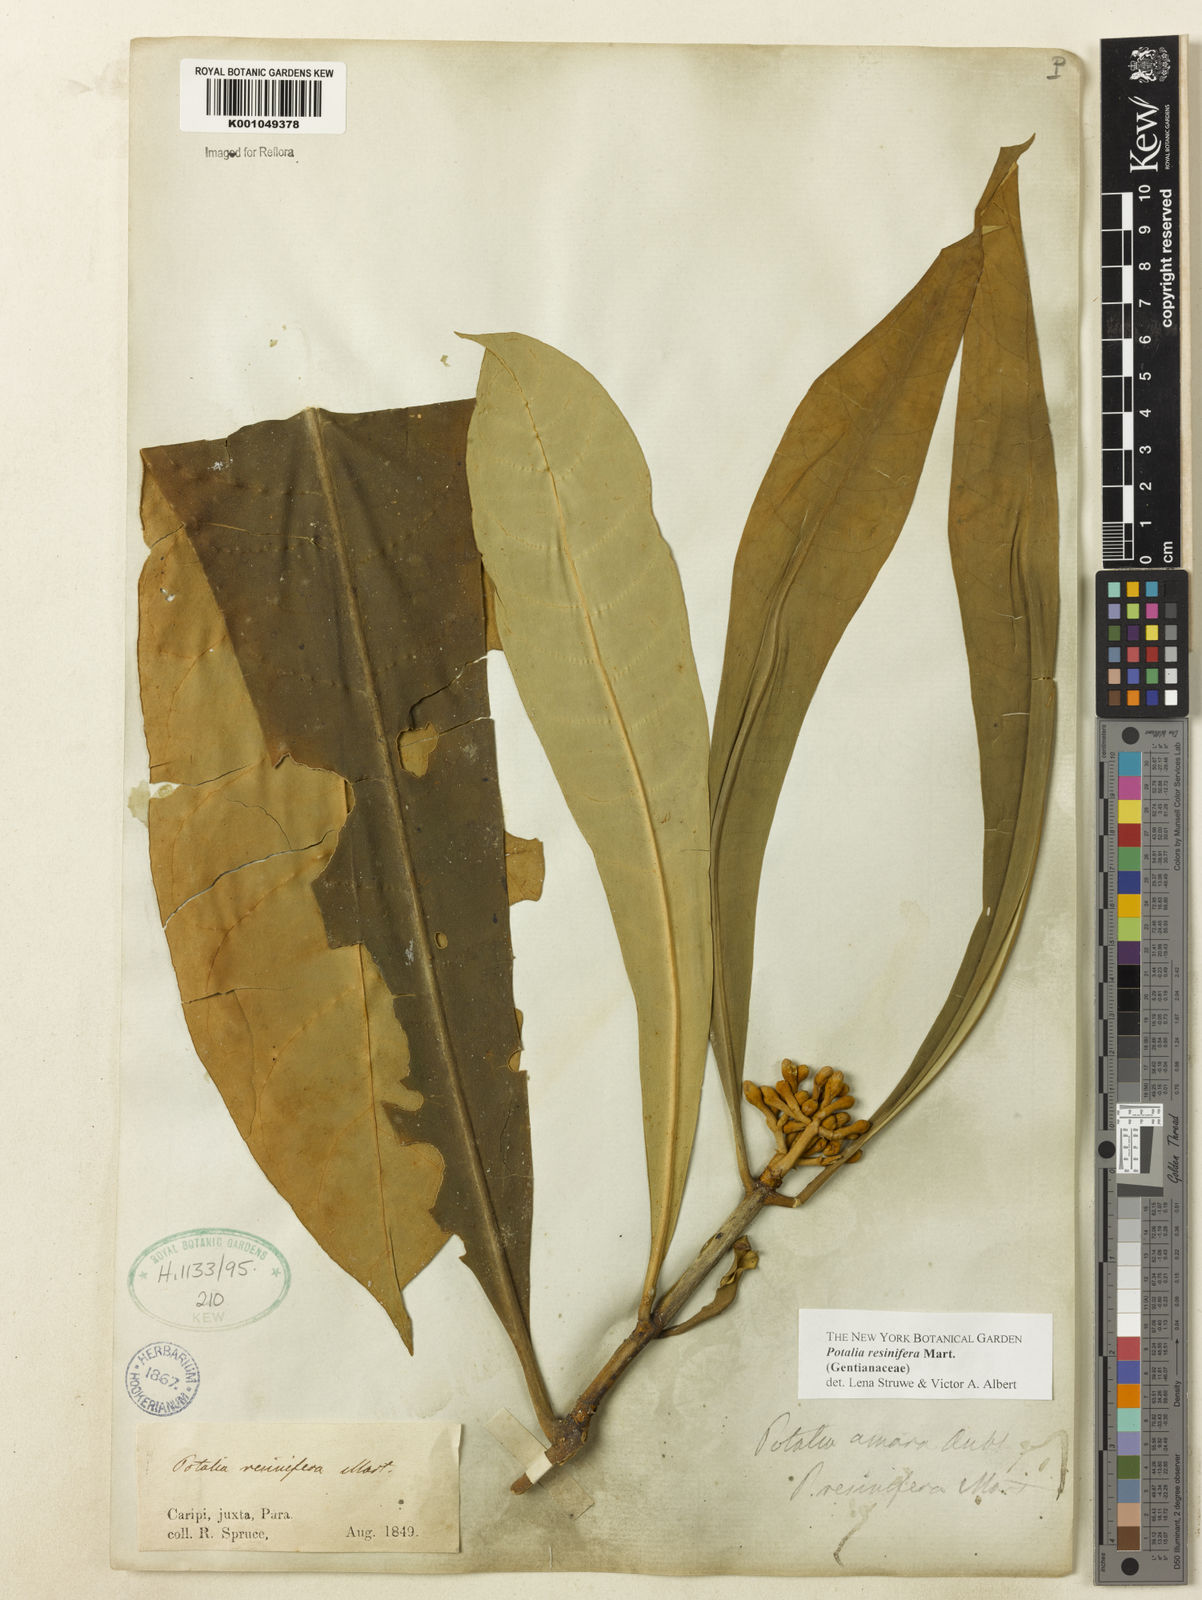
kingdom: Plantae
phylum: Tracheophyta
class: Magnoliopsida
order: Gentianales
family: Gentianaceae
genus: Potalia
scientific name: Potalia resinifera
